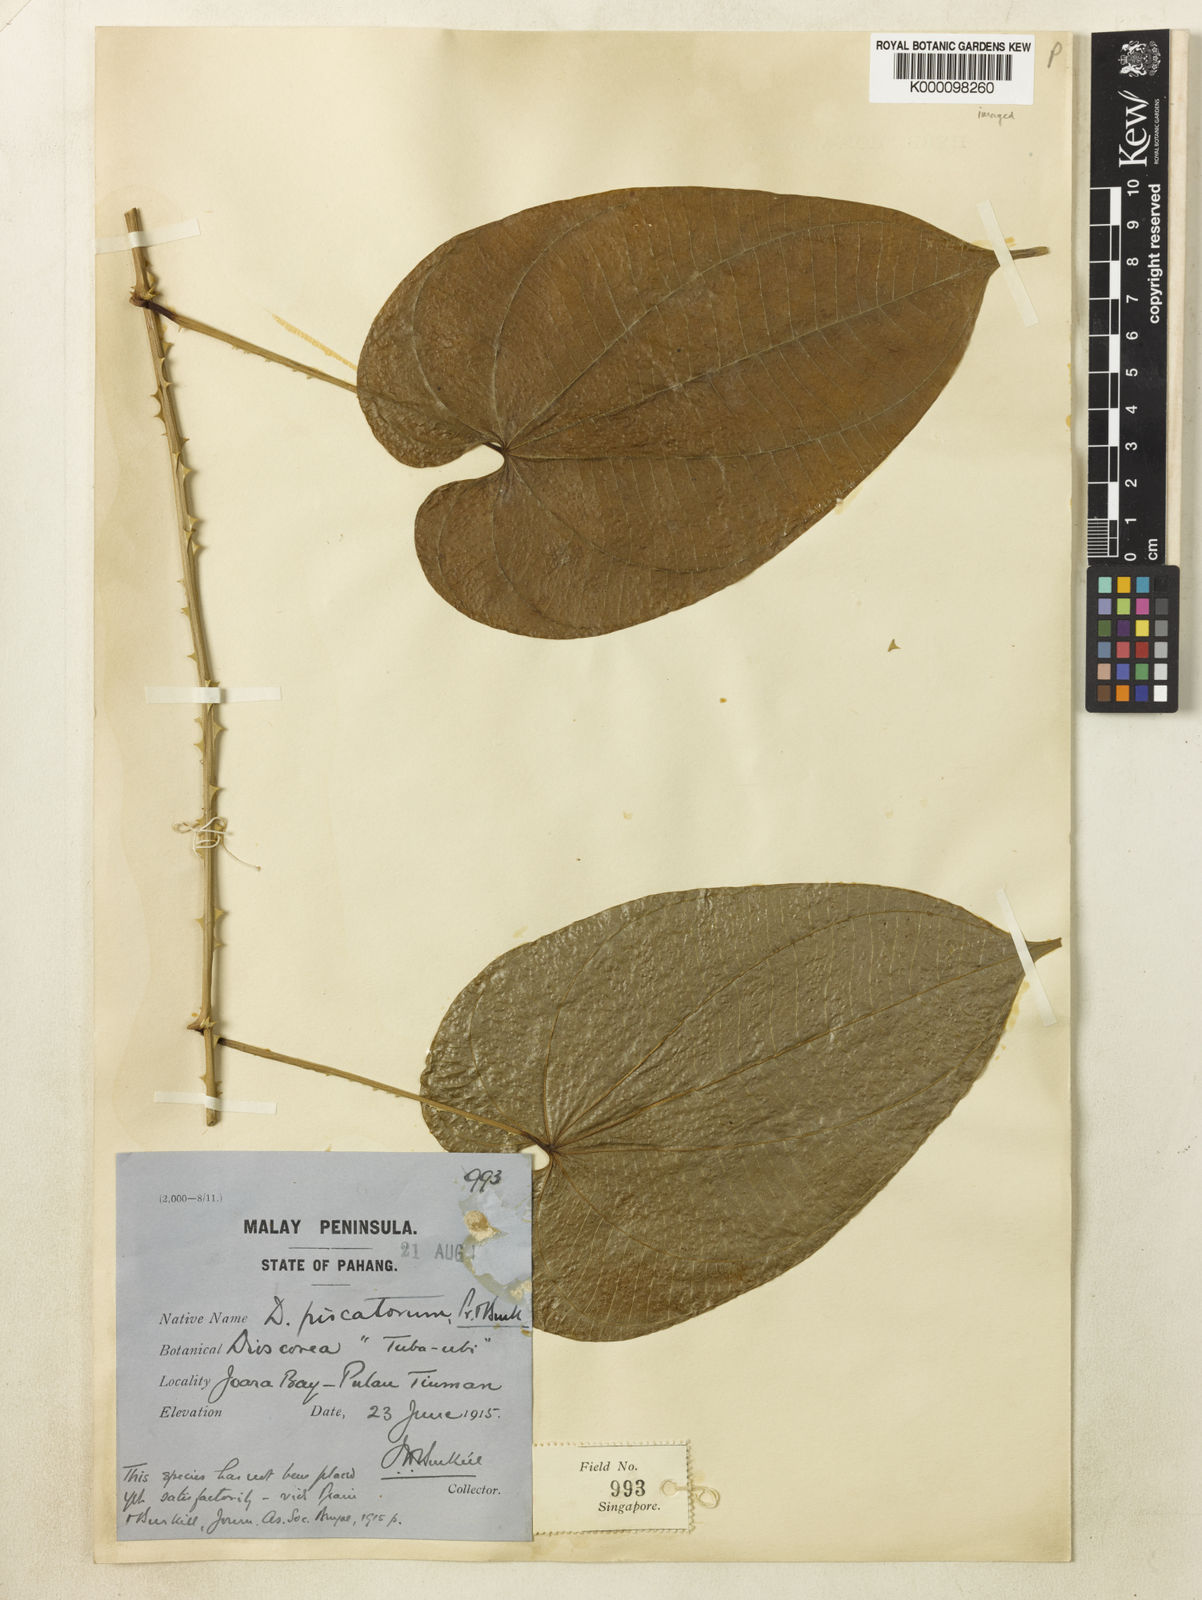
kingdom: Plantae
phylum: Tracheophyta
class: Liliopsida
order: Dioscoreales
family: Dioscoreaceae
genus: Dioscorea
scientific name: Dioscorea piscatorum
